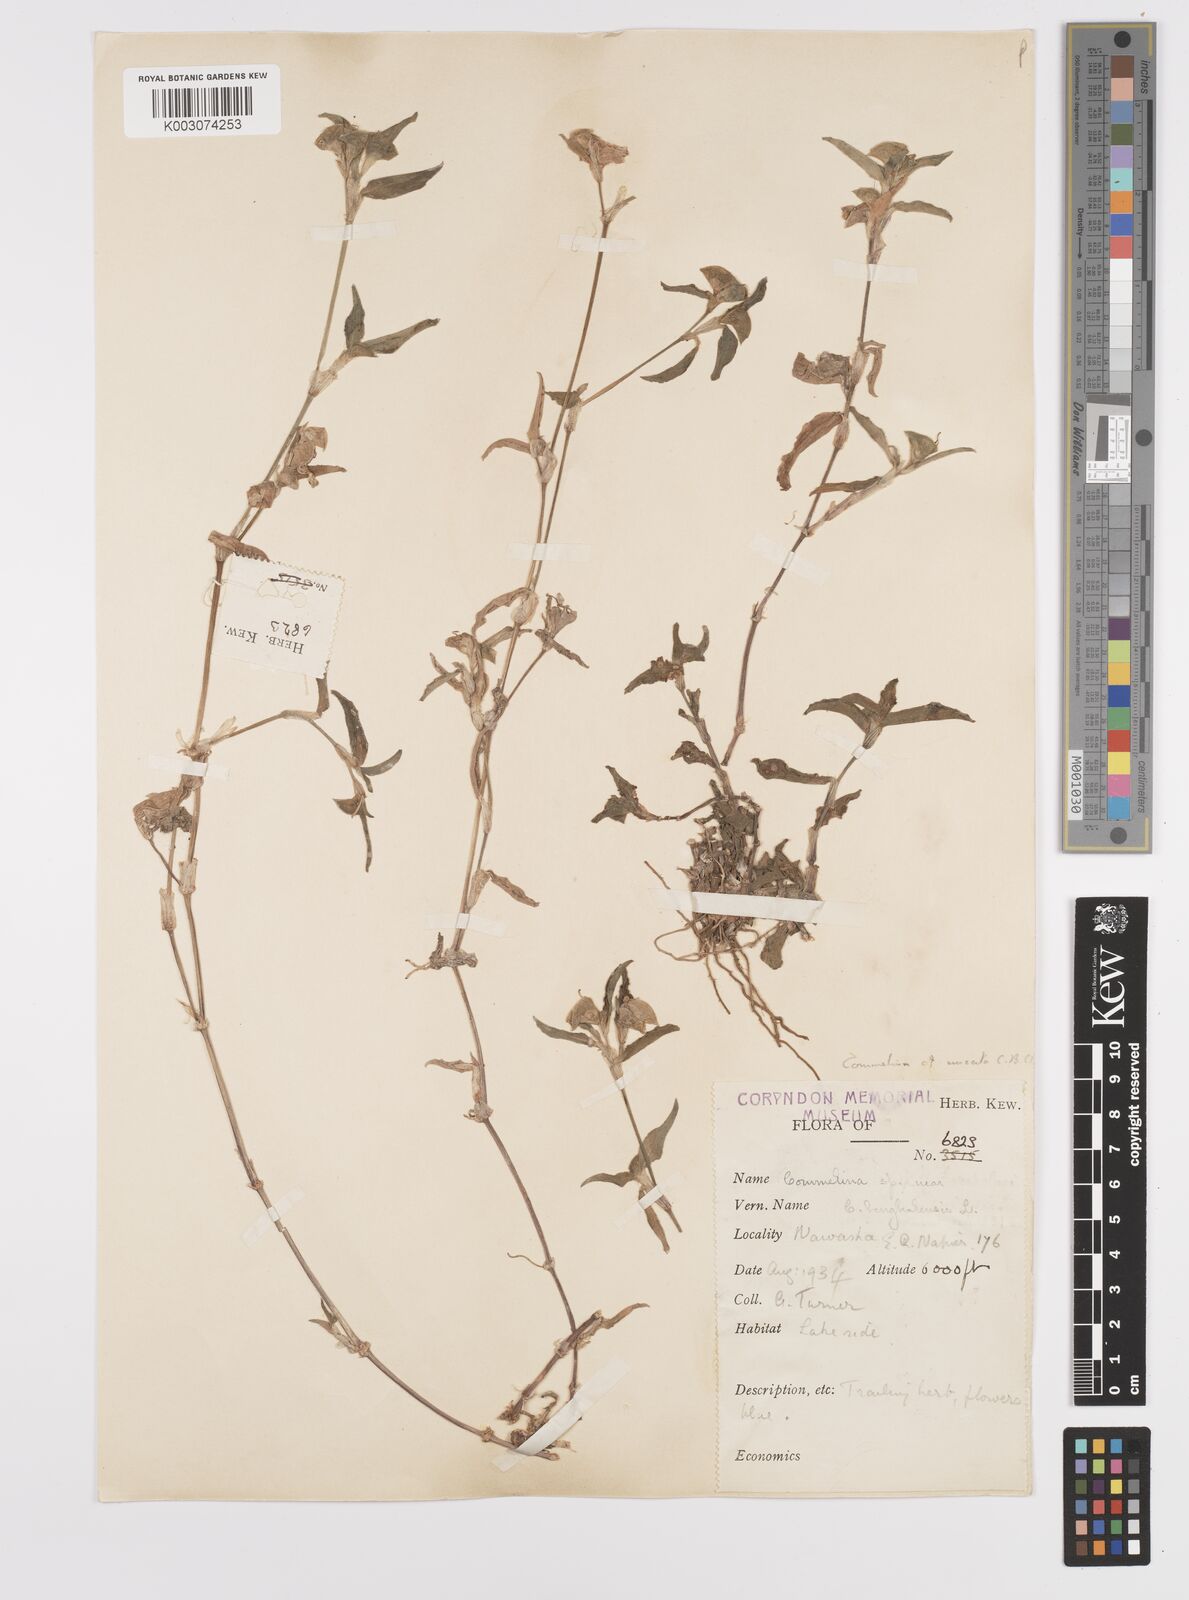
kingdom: Plantae
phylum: Tracheophyta
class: Liliopsida
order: Commelinales
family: Commelinaceae
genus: Commelina
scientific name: Commelina benghalensis
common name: Jio
